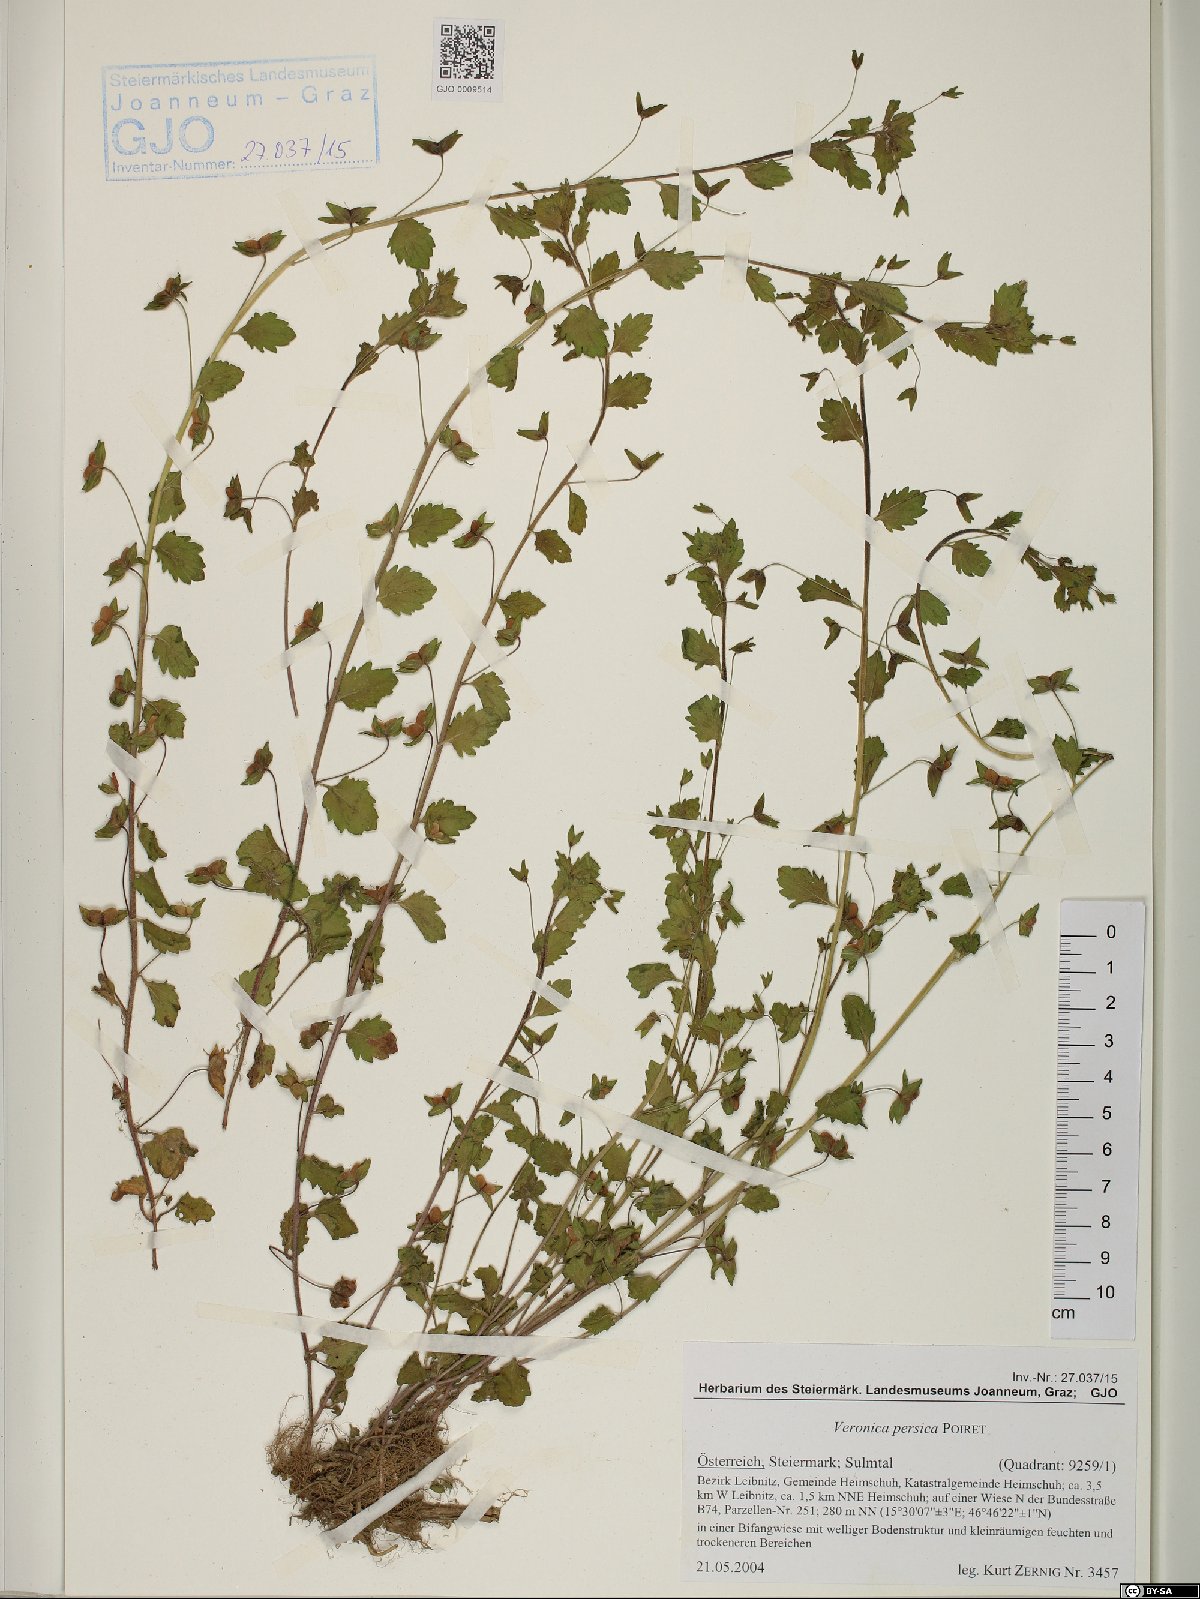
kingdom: Plantae
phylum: Tracheophyta
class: Magnoliopsida
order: Lamiales
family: Plantaginaceae
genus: Veronica
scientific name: Veronica persica
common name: Common field-speedwell
